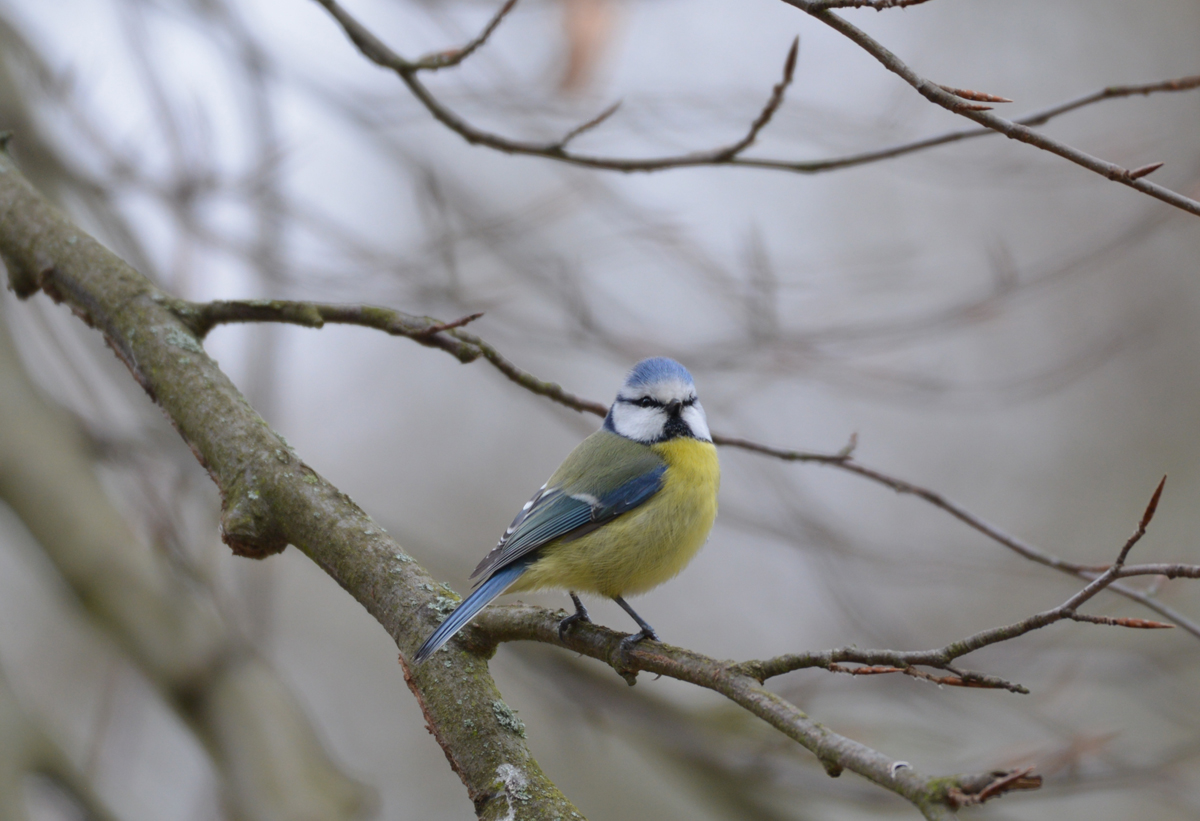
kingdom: Animalia
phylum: Chordata
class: Aves
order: Passeriformes
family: Paridae
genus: Cyanistes
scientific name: Cyanistes caeruleus
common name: Eurasian blue tit
